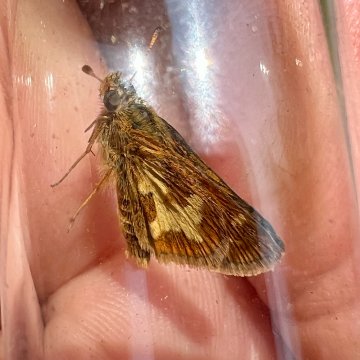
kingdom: Animalia
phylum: Arthropoda
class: Insecta
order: Lepidoptera
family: Hesperiidae
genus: Polites
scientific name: Polites coras
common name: Peck's Skipper
